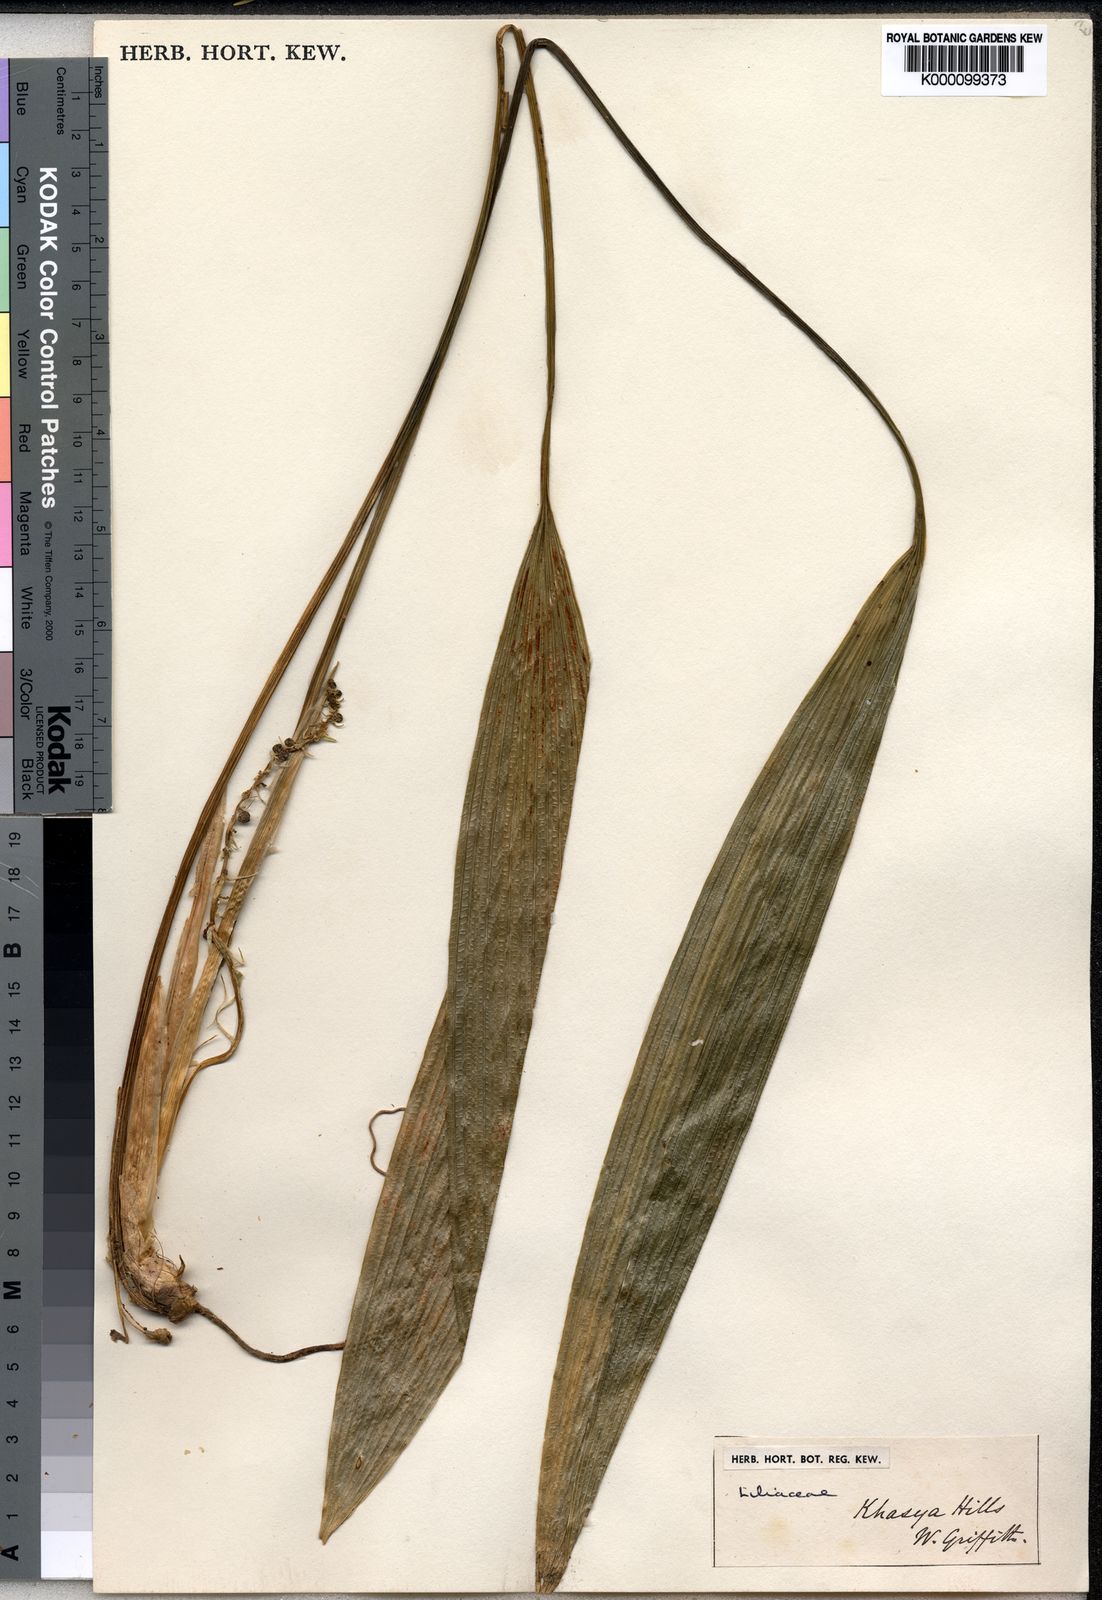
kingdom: Plantae
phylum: Tracheophyta
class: Liliopsida
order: Asparagales
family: Asparagaceae
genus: Peliosanthes
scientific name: Peliosanthes
